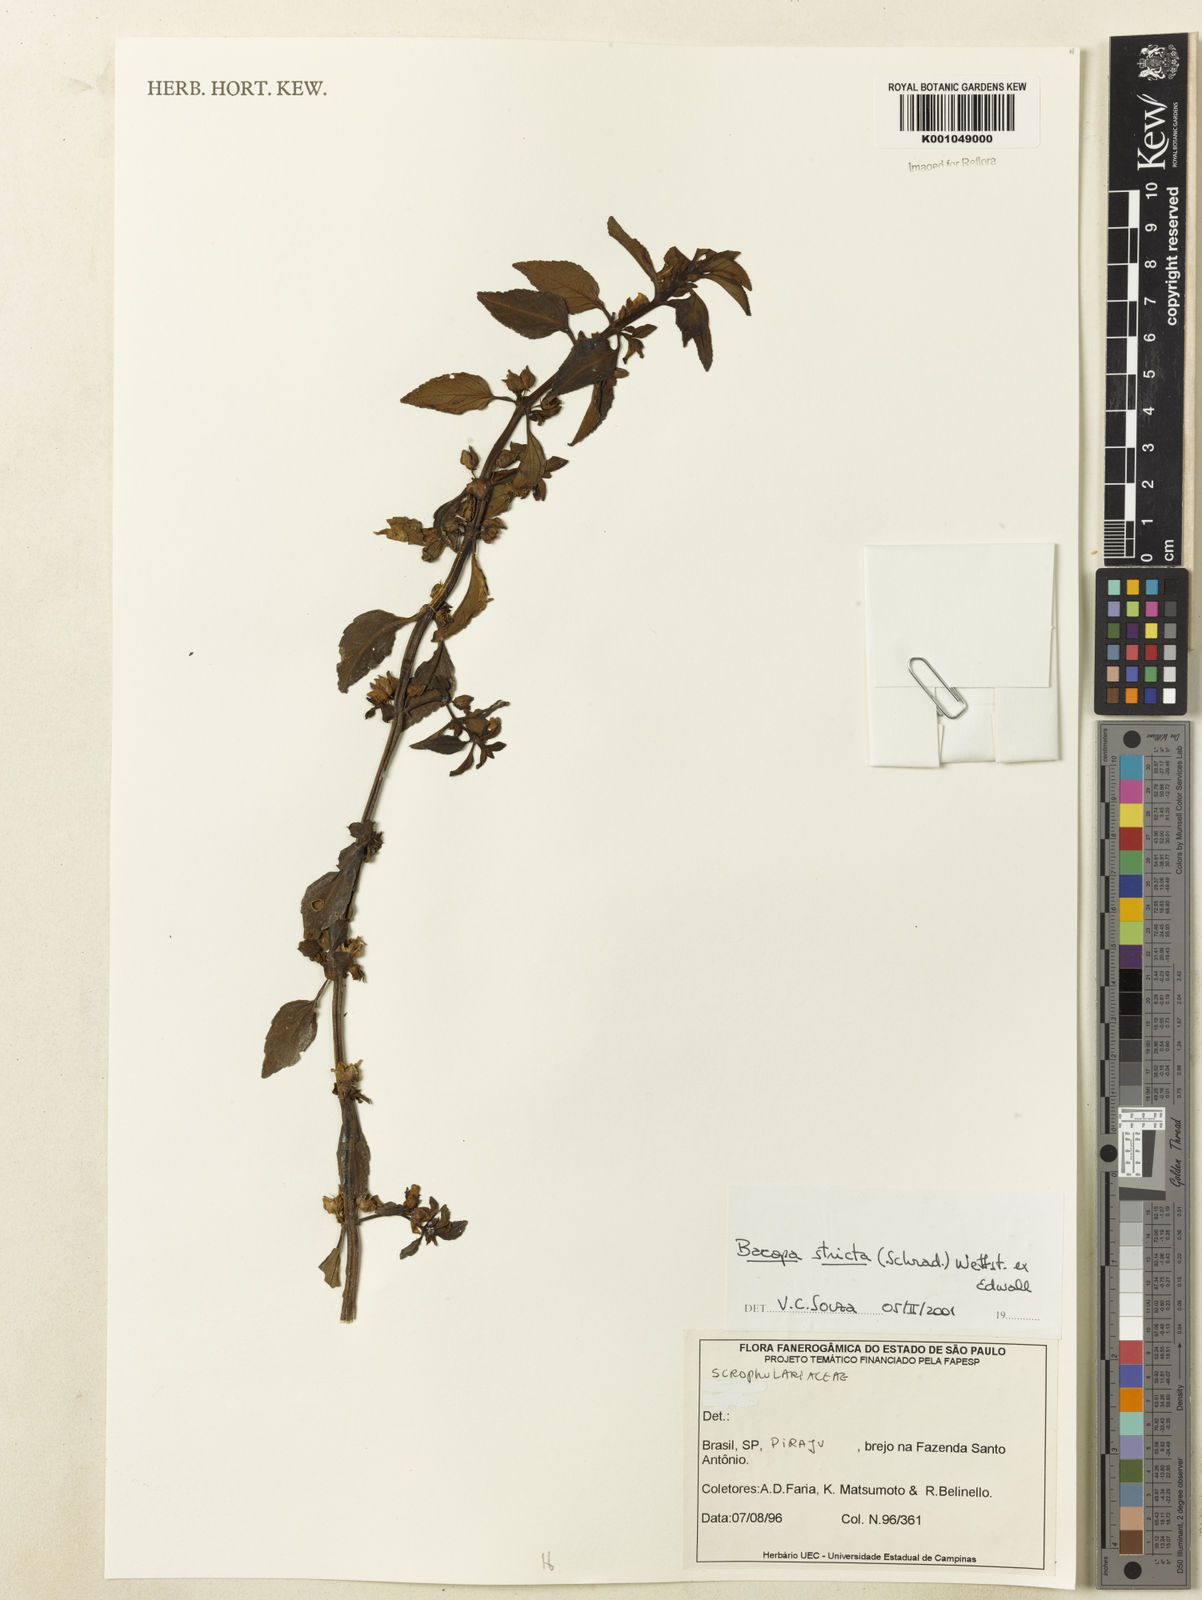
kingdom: Plantae
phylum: Tracheophyta
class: Magnoliopsida
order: Lamiales
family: Plantaginaceae
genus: Bacopa
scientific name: Bacopa stricta
